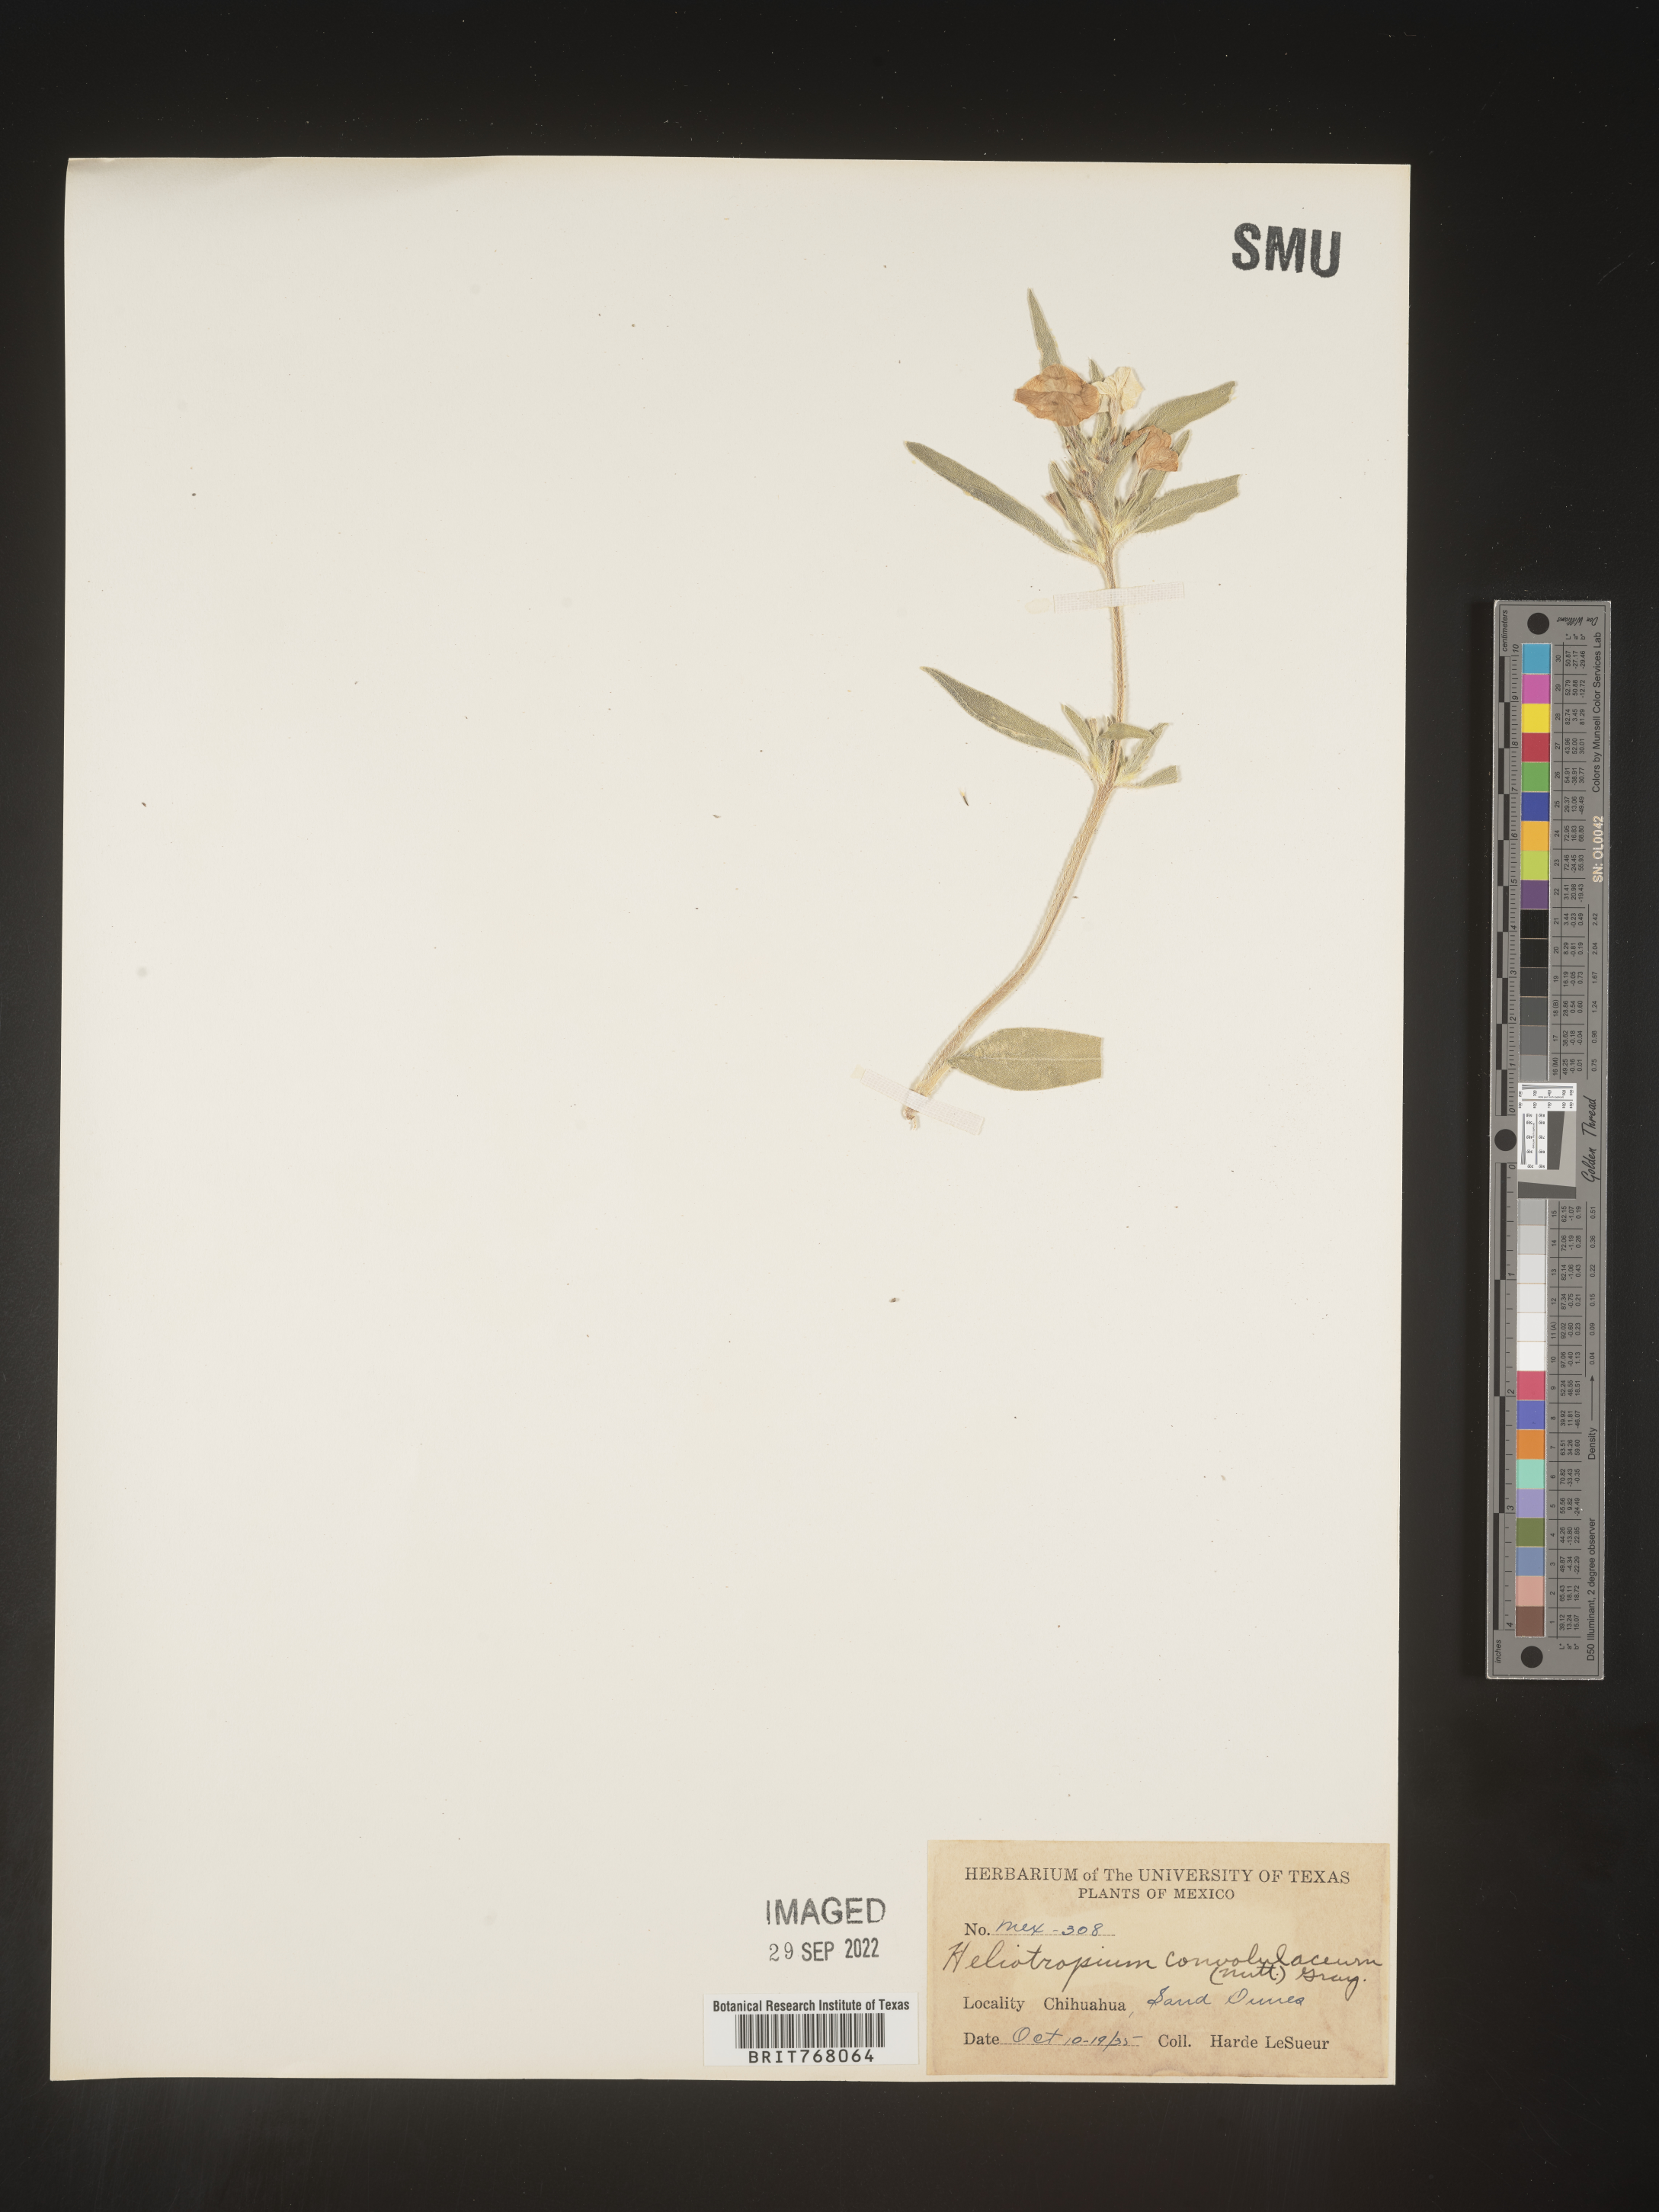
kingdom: Plantae
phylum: Tracheophyta
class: Magnoliopsida
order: Boraginales
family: Heliotropiaceae
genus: Heliotropium
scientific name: Heliotropium
